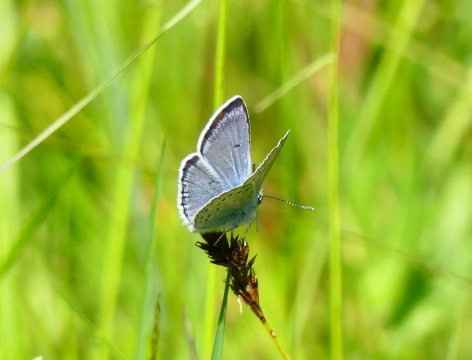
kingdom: Animalia
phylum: Arthropoda
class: Insecta
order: Lepidoptera
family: Lycaenidae
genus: Plebejus
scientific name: Plebejus saepiolus
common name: Greenish Blue
